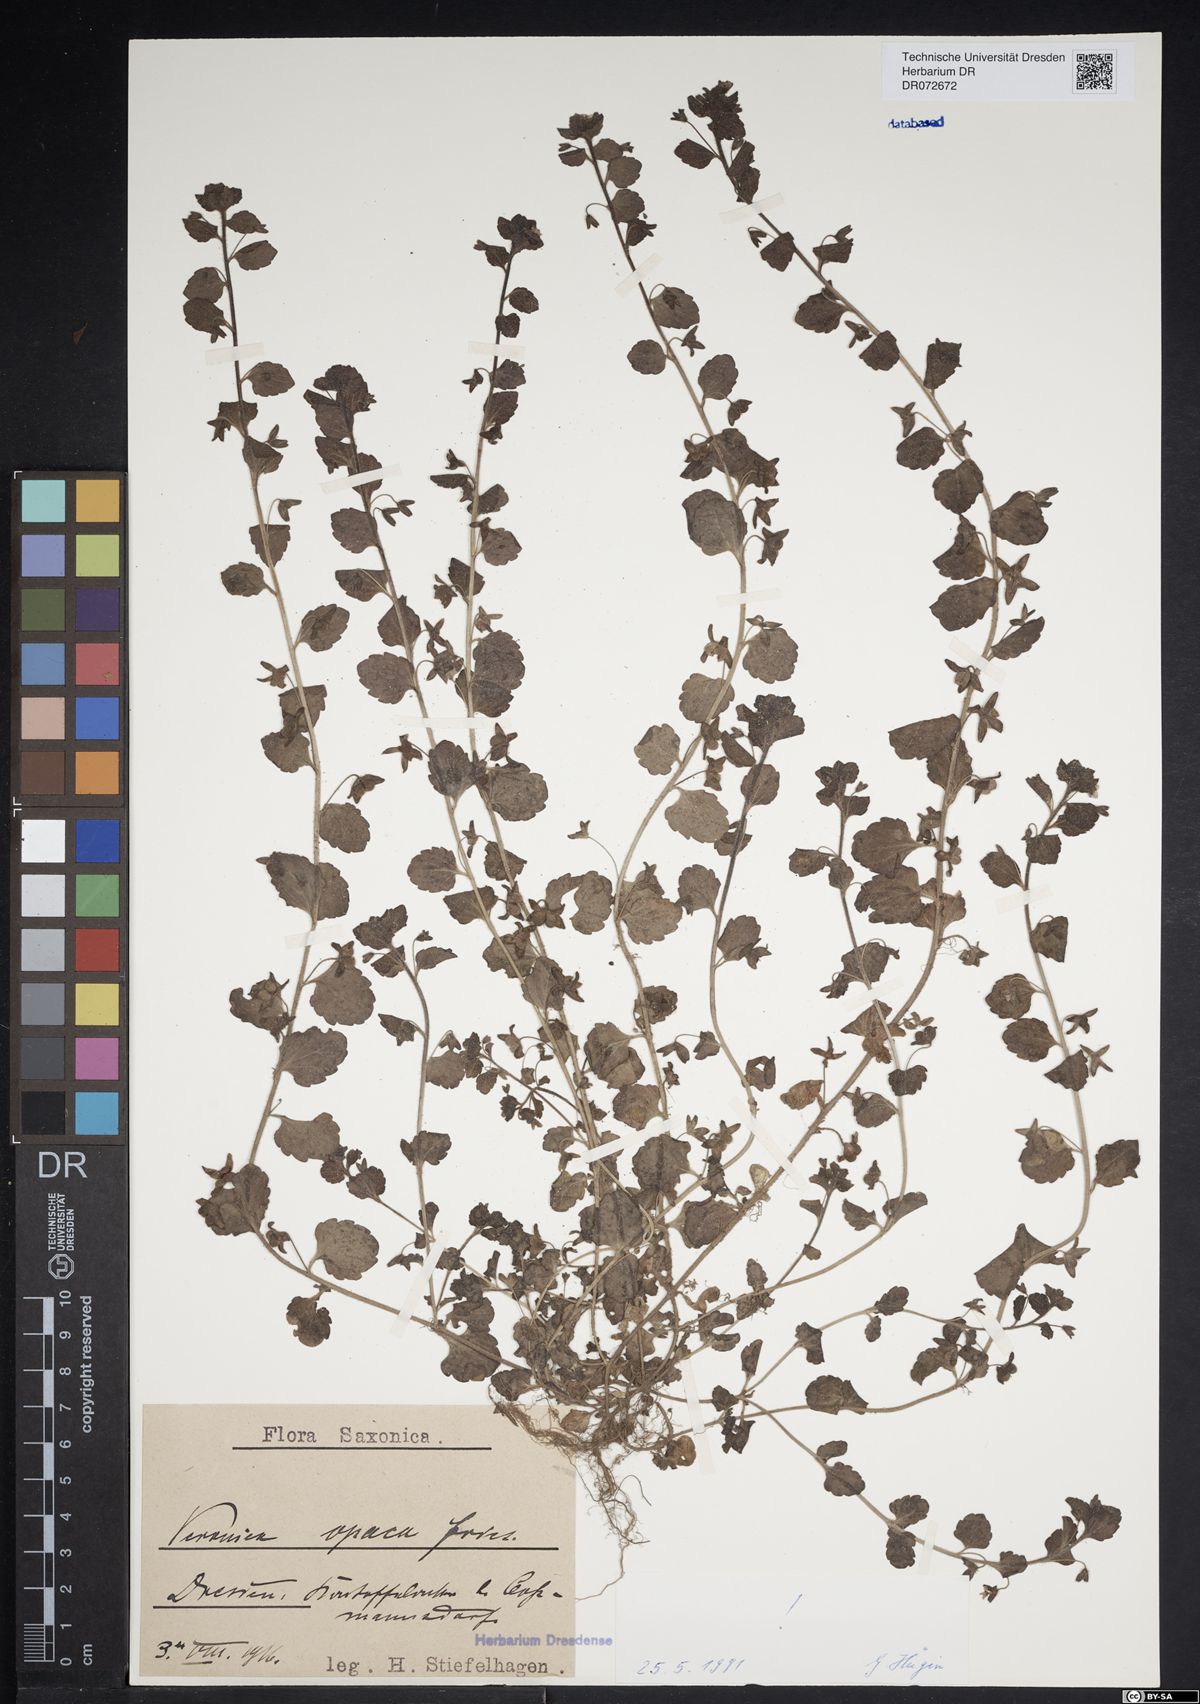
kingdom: Plantae
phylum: Tracheophyta
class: Magnoliopsida
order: Lamiales
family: Plantaginaceae
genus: Veronica
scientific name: Veronica opaca
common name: Dark speedwell
